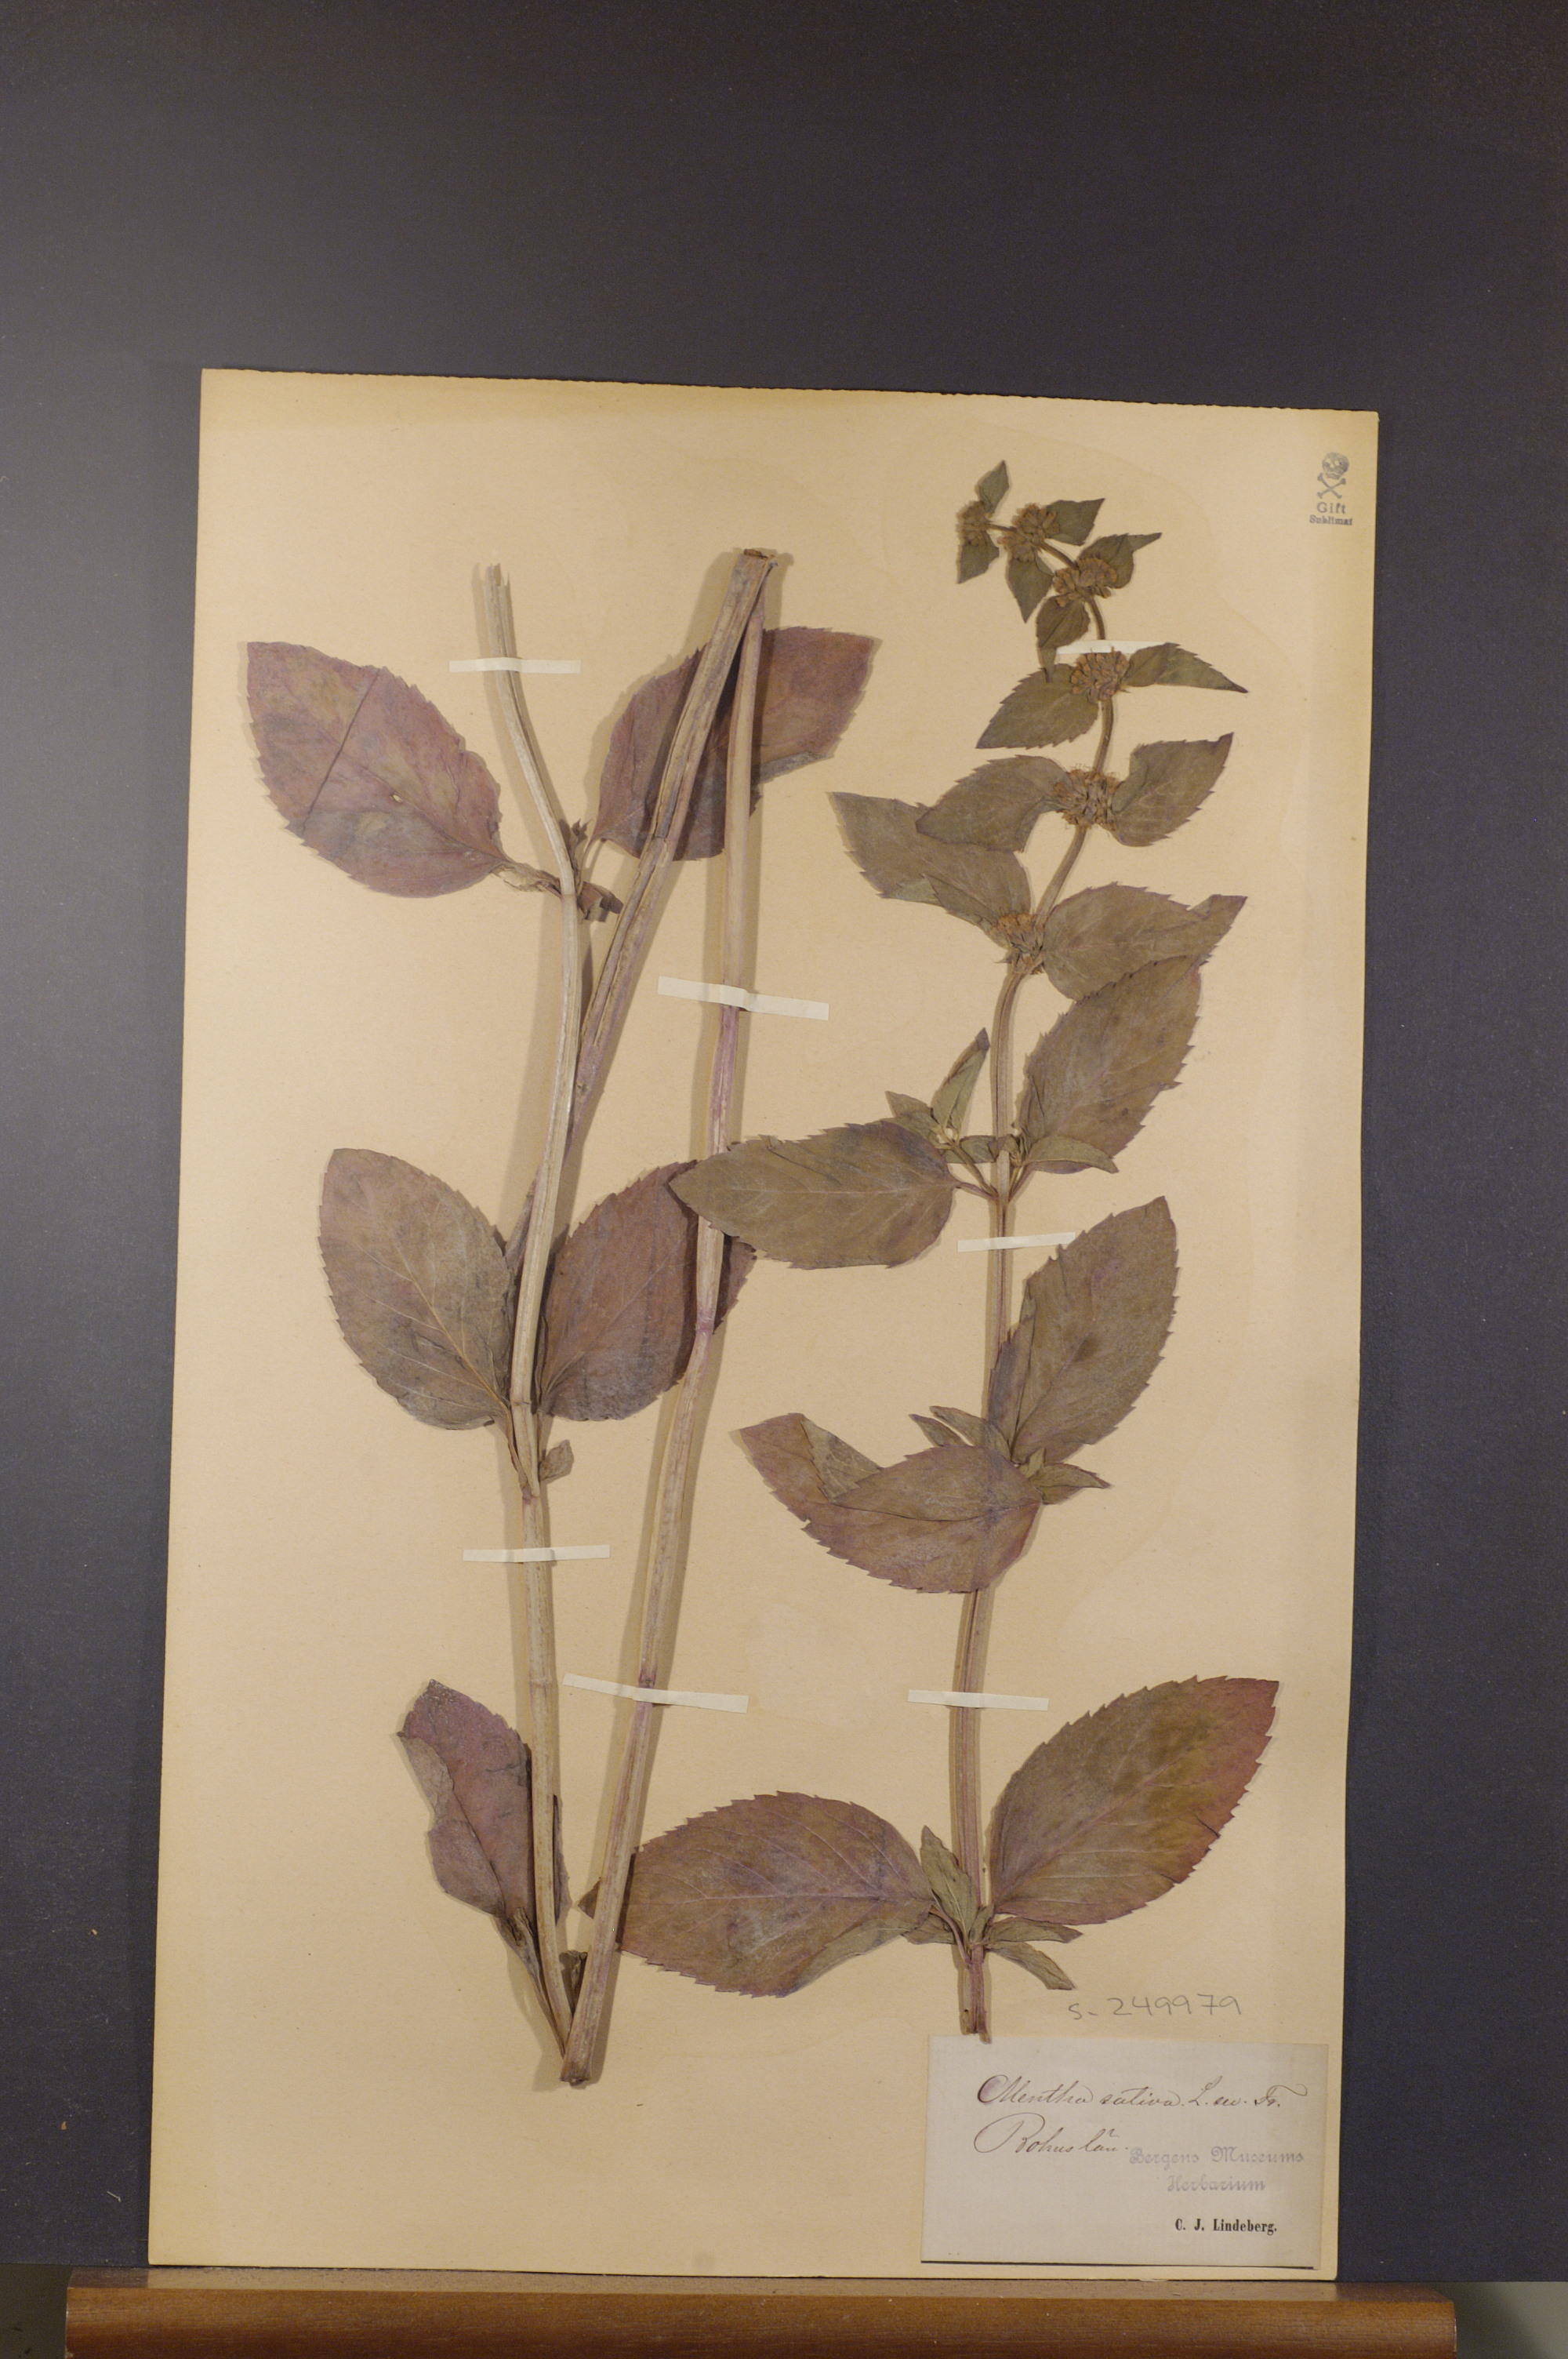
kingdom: Plantae
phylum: Tracheophyta
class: Magnoliopsida
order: Lamiales
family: Lamiaceae
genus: Mentha
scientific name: Mentha verticillata
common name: Mint
